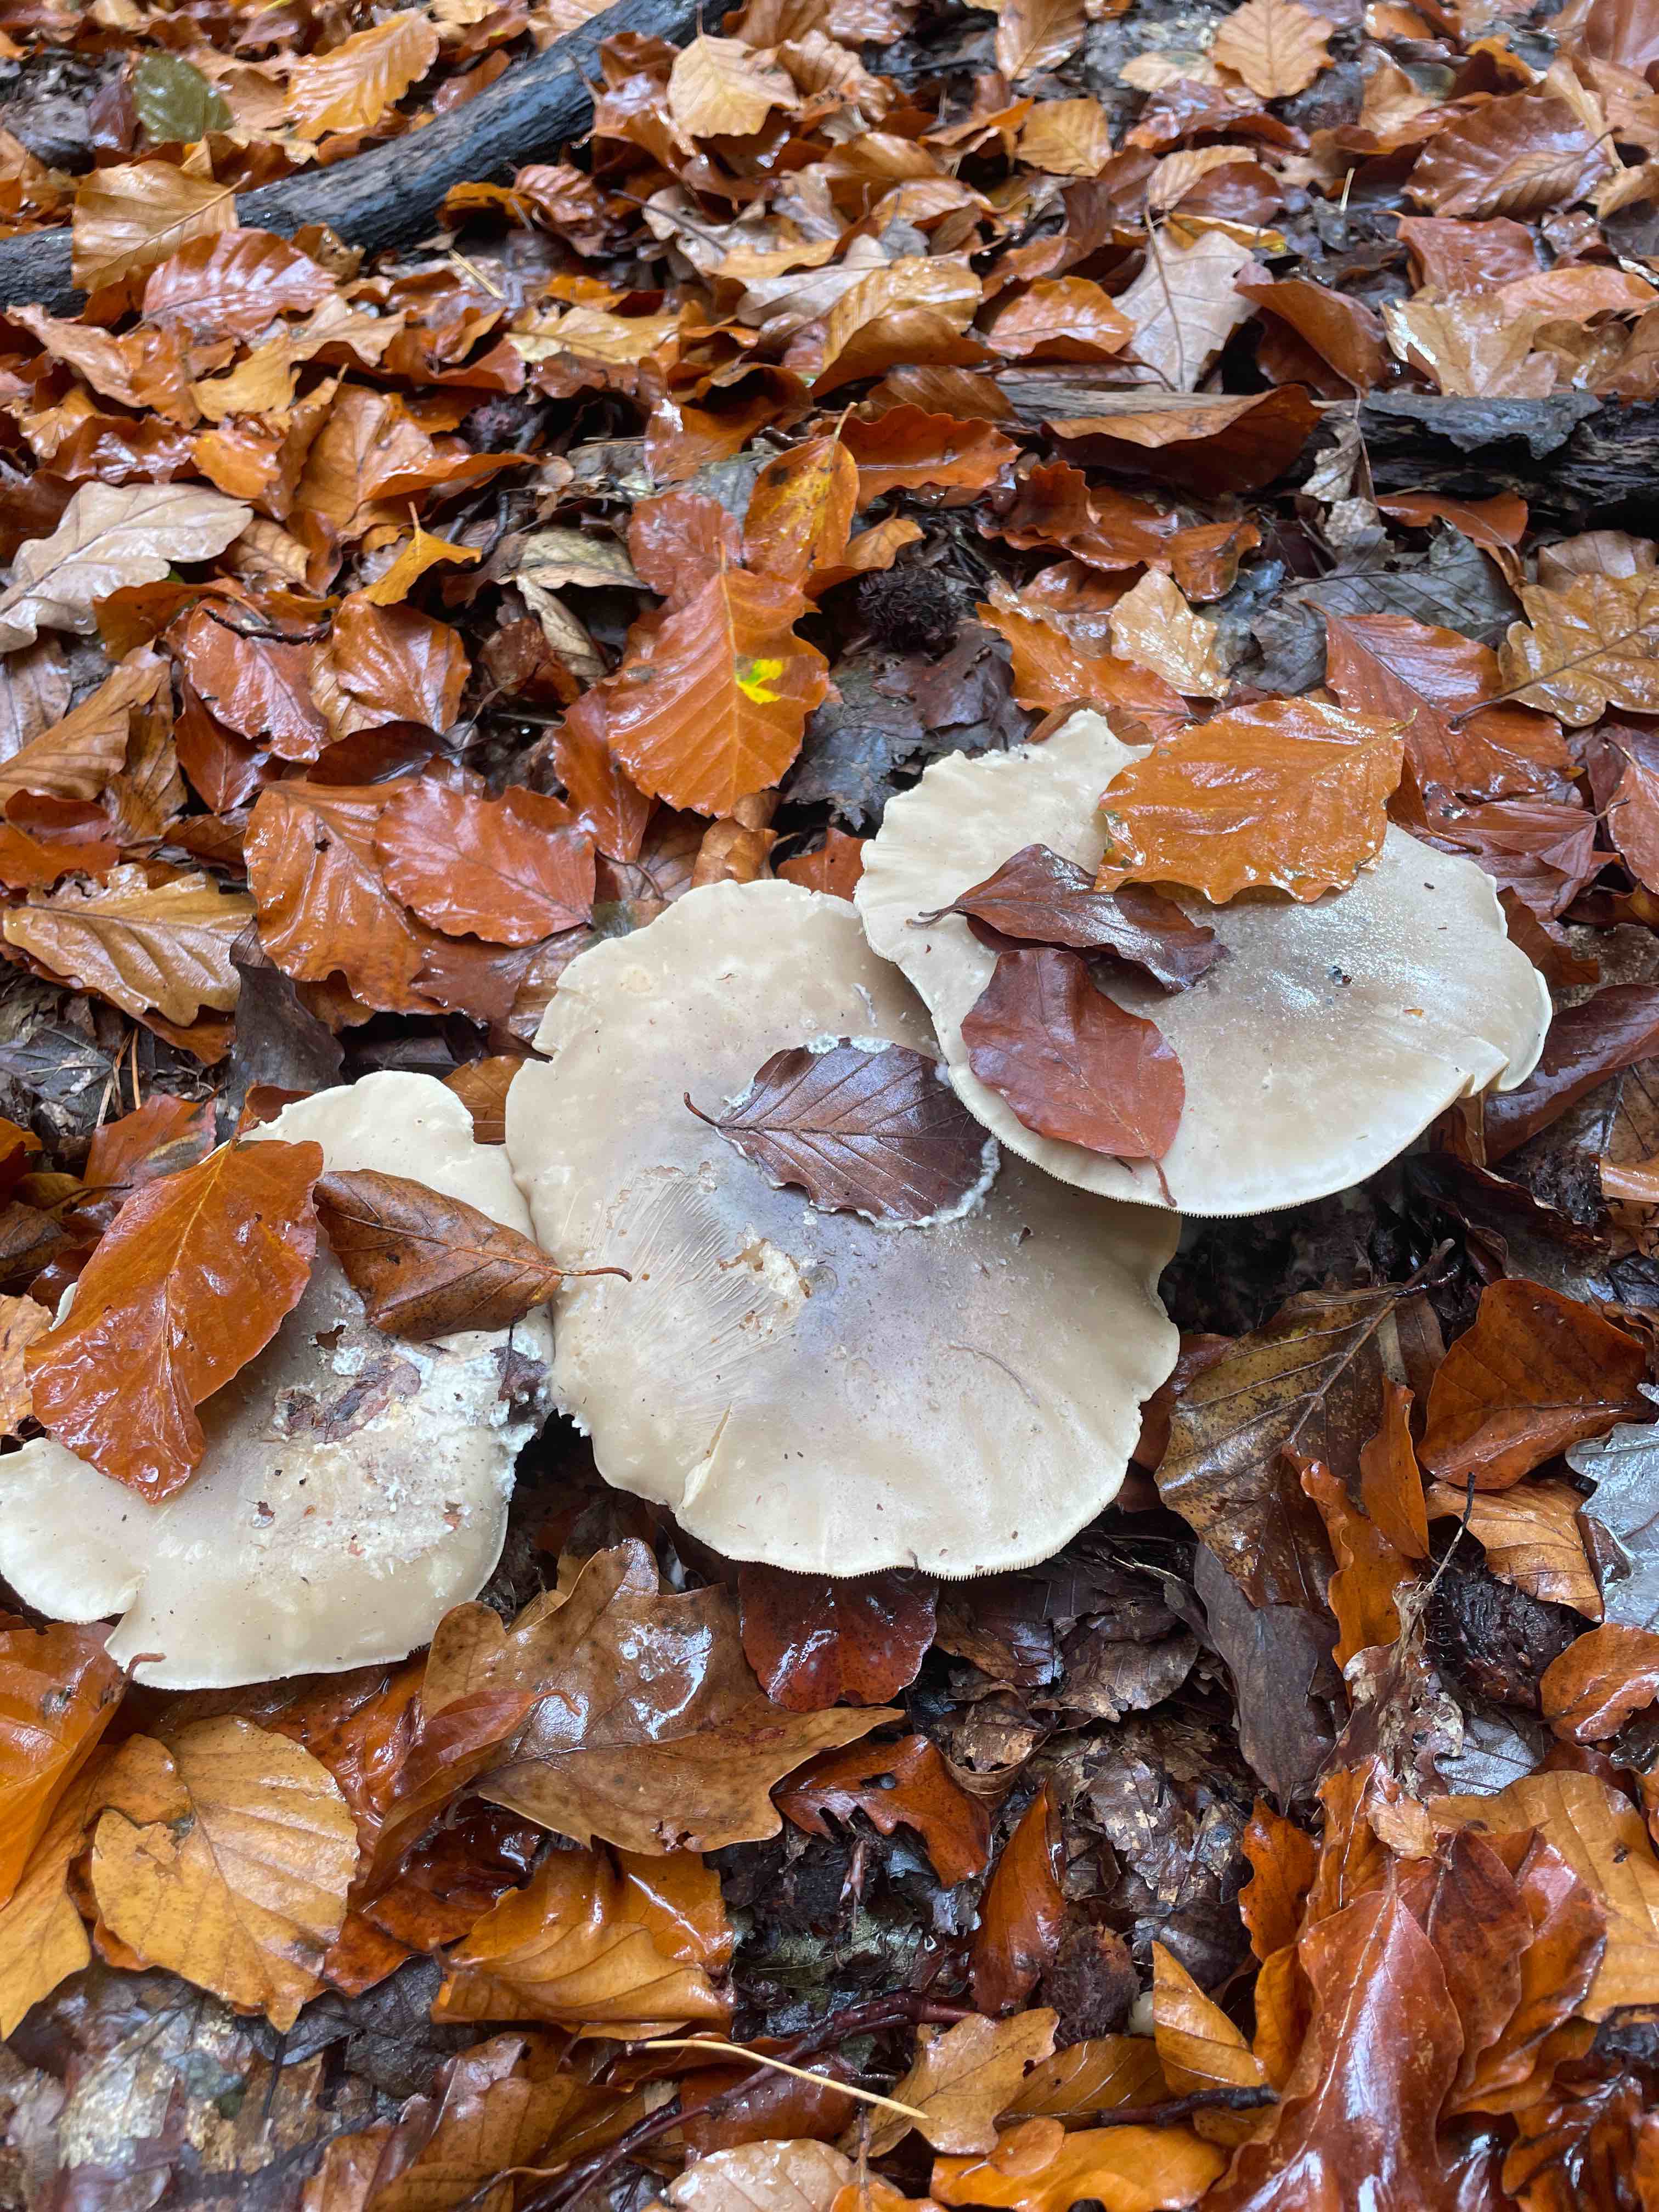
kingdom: Fungi
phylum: Basidiomycota
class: Agaricomycetes
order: Agaricales
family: Tricholomataceae
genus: Clitocybe
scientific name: Clitocybe nebularis
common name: tåge-tragthat
